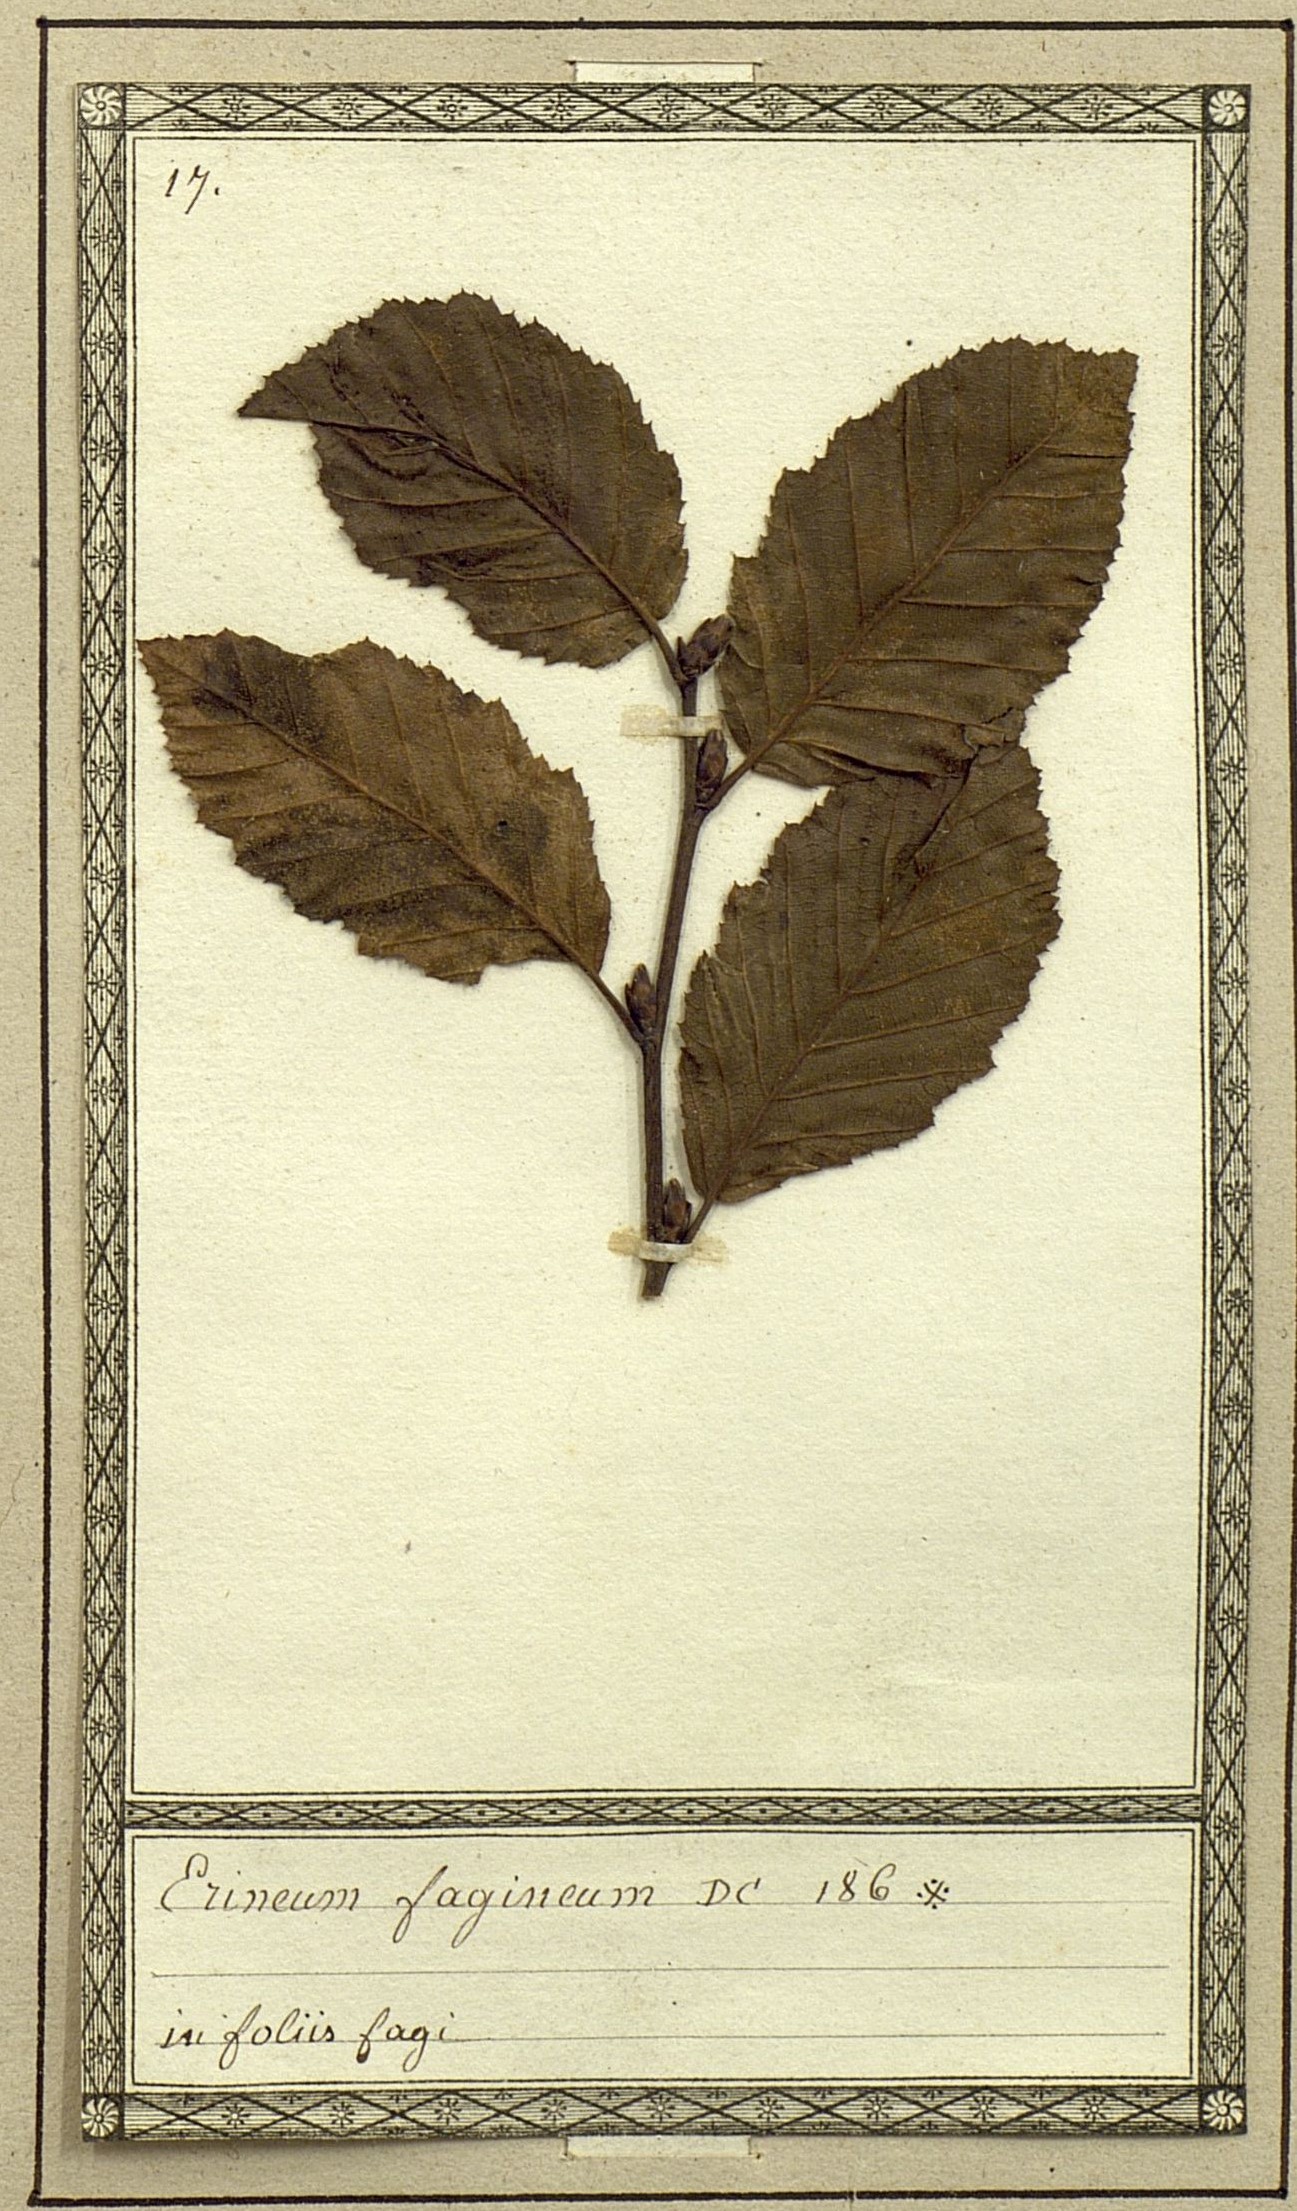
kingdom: Fungi
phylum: Basidiomycota
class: Pucciniomycetes
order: Pucciniales
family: Cronartiaceae
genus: Erineum
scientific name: Erineum
